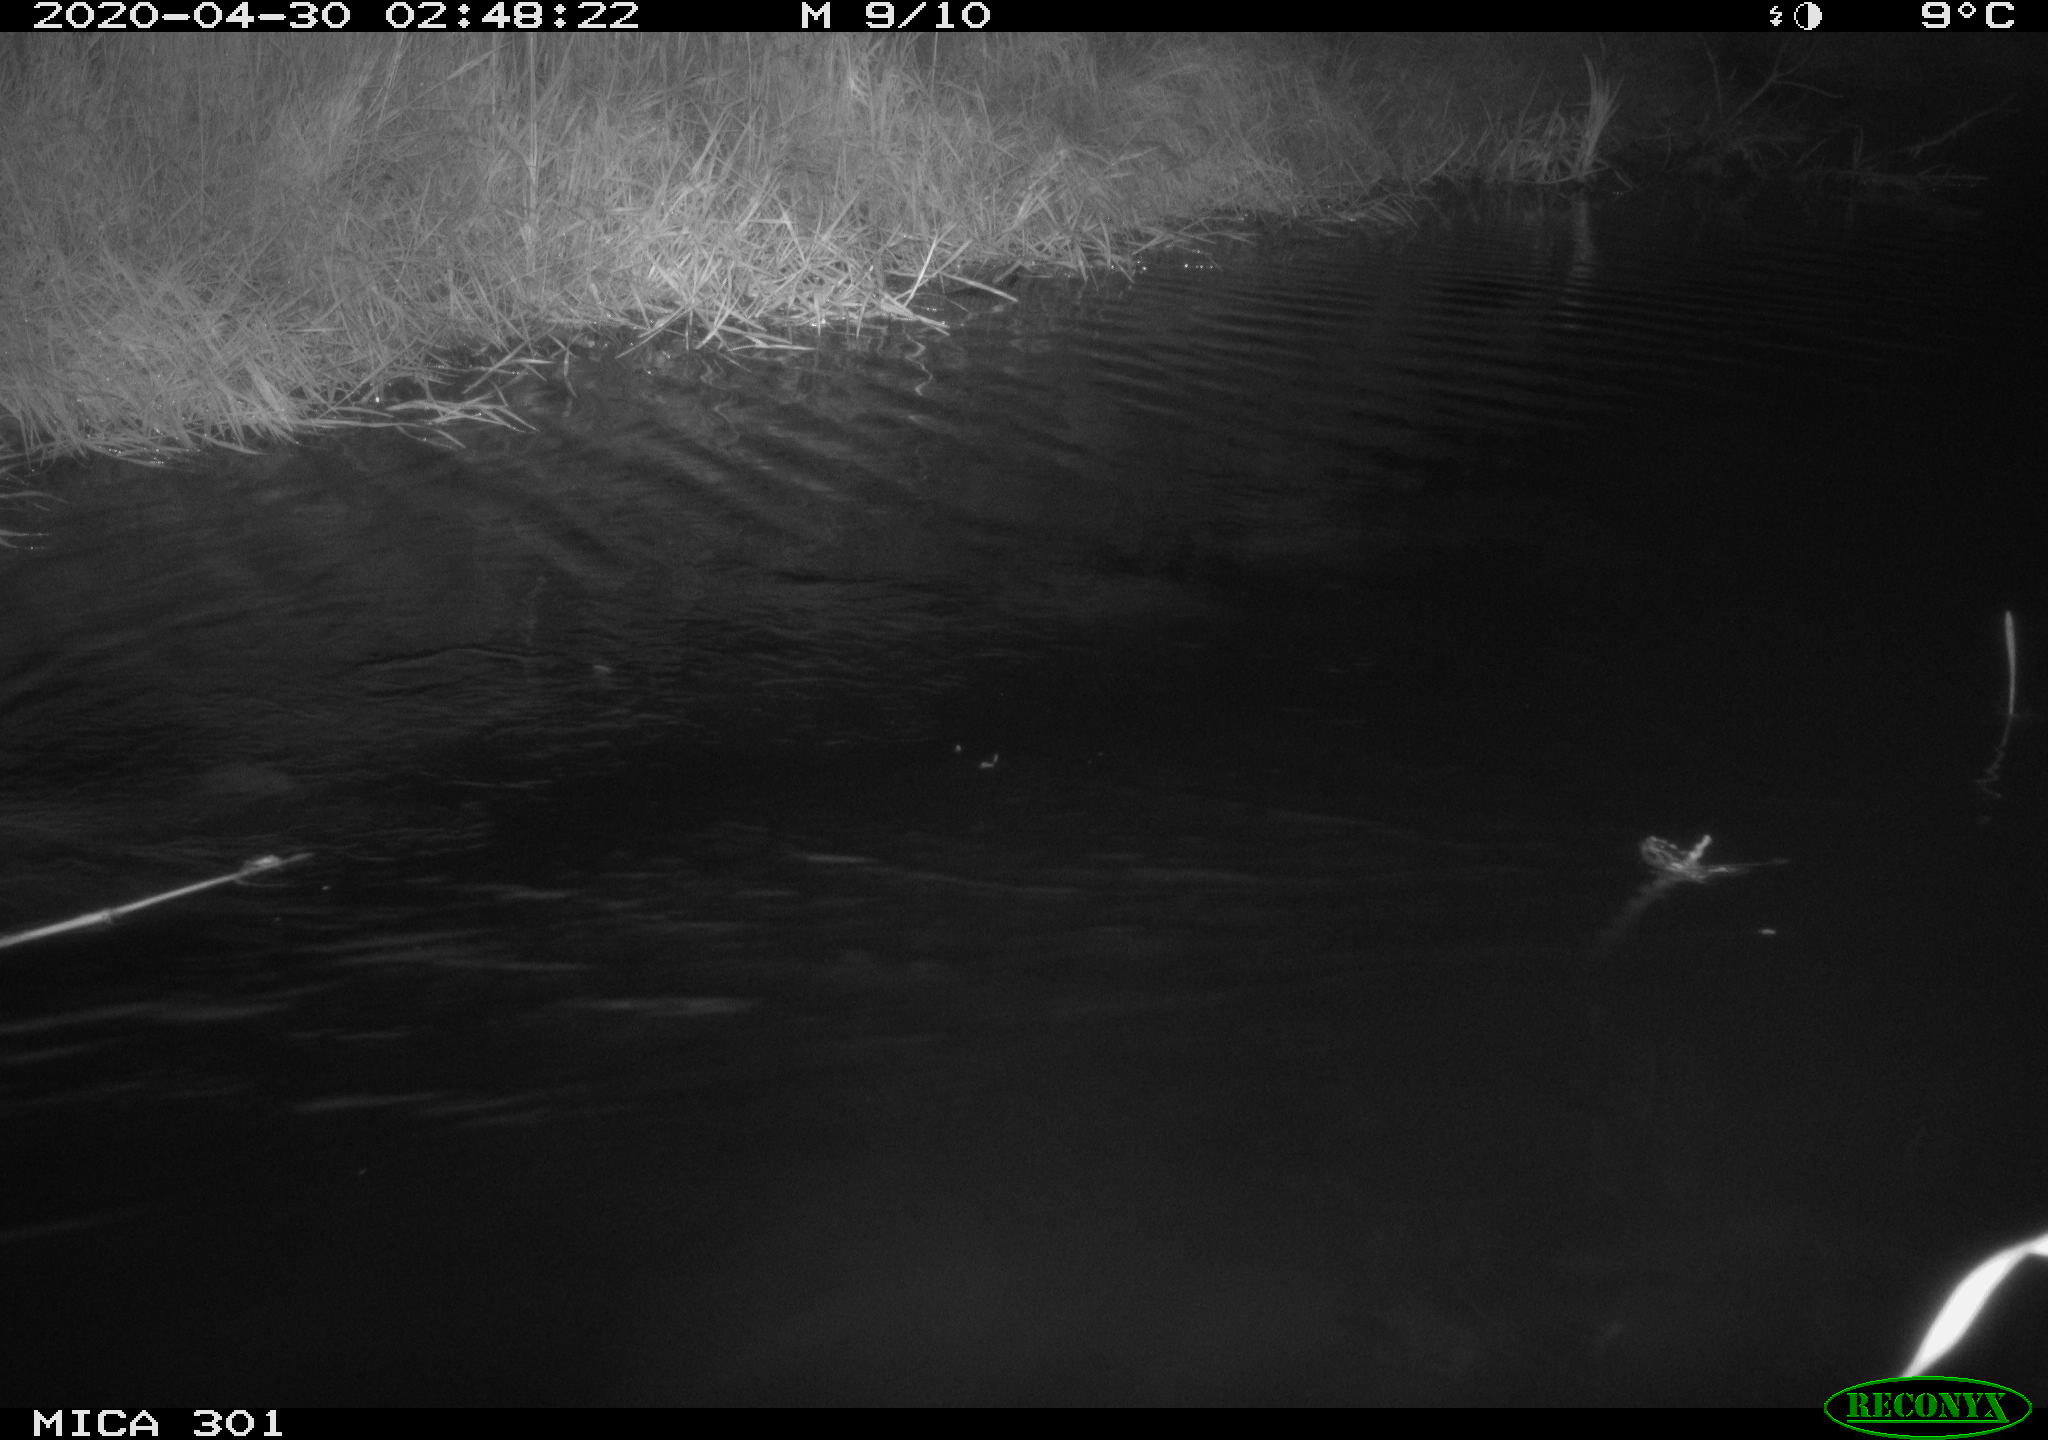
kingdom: Animalia
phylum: Chordata
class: Mammalia
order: Rodentia
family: Castoridae
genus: Castor
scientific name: Castor fiber
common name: Eurasian beaver
